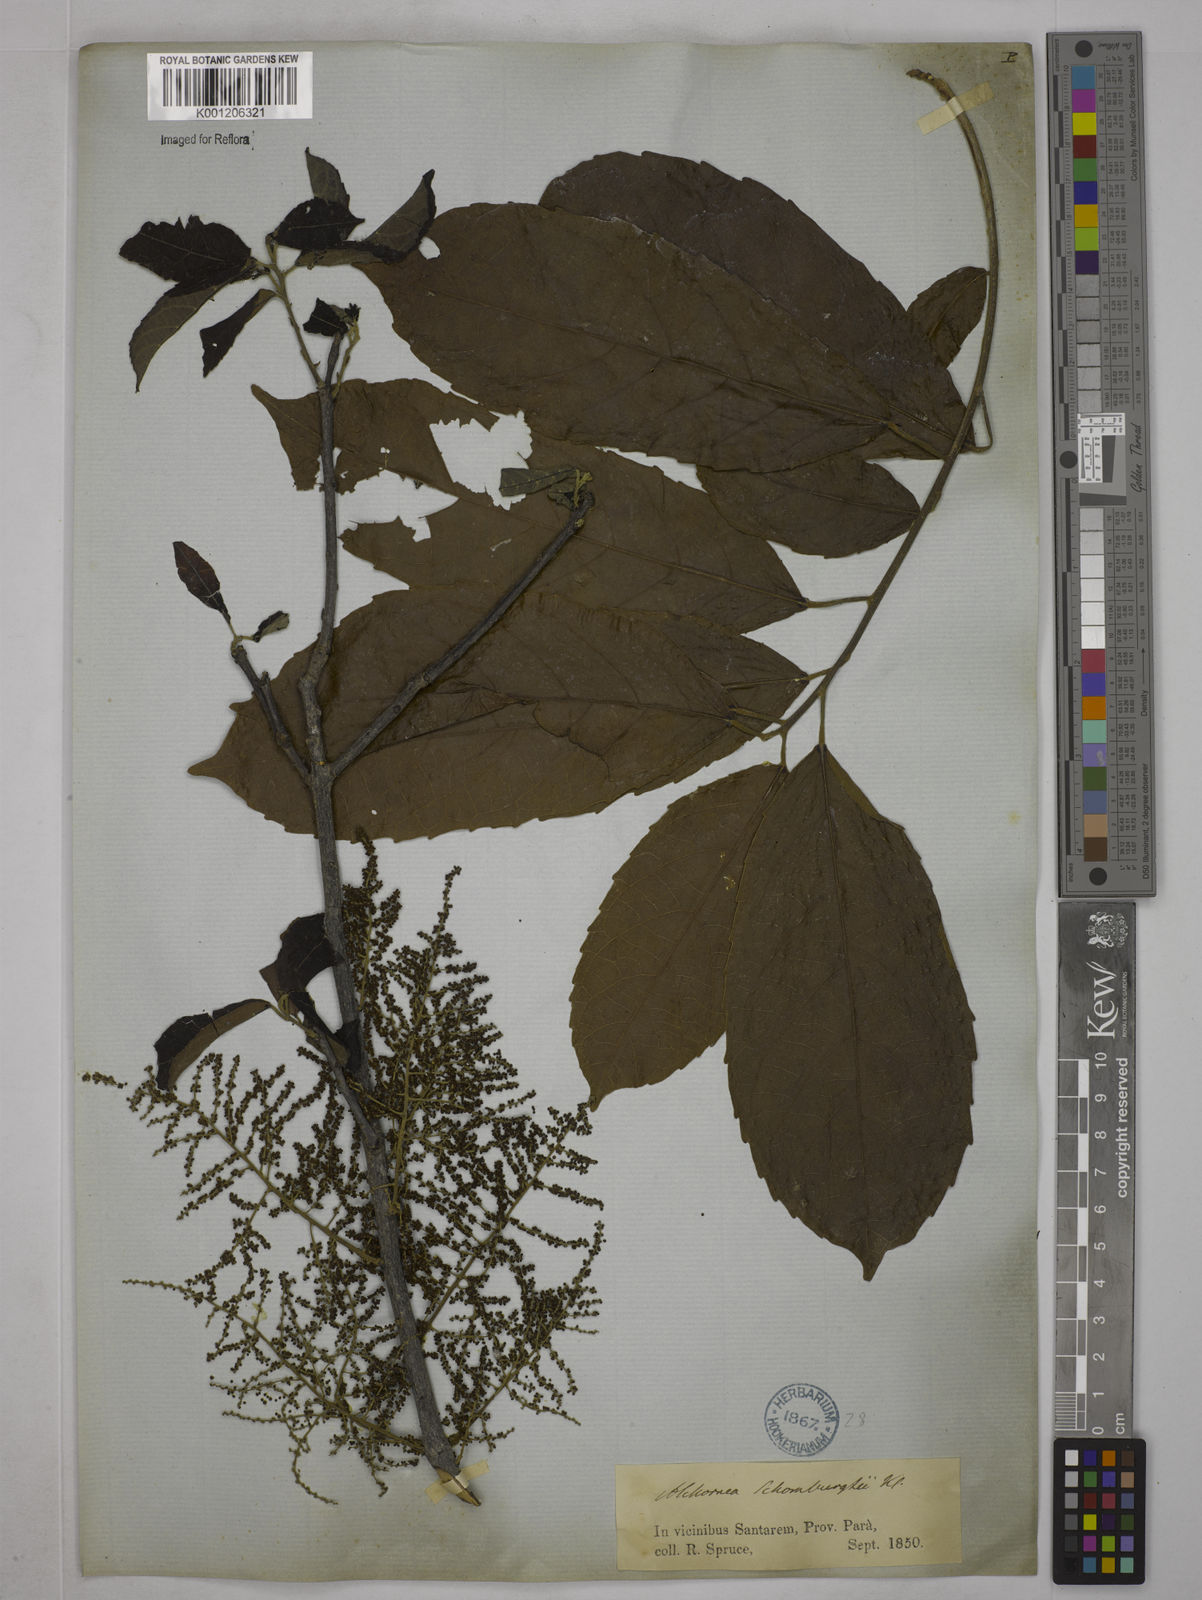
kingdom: Plantae
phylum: Tracheophyta
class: Magnoliopsida
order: Malpighiales
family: Euphorbiaceae
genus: Alchornea
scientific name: Alchornea discolor
